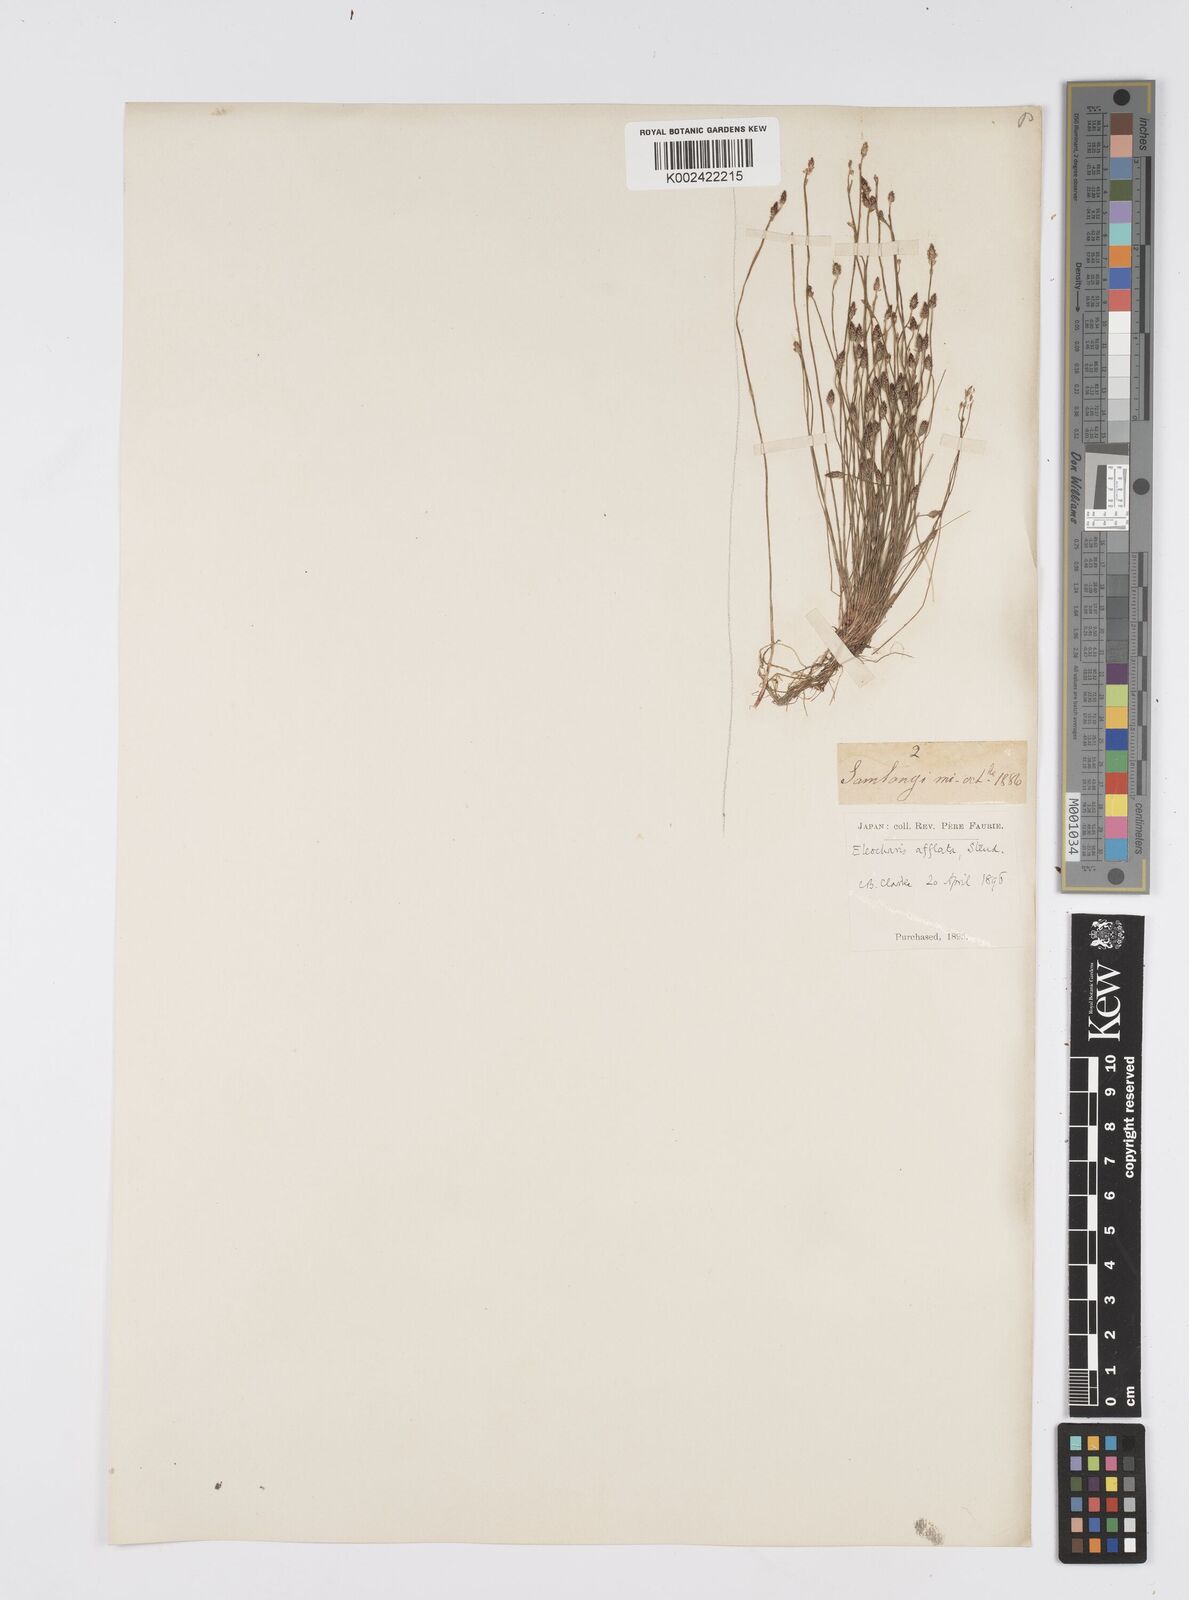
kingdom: Plantae
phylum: Tracheophyta
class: Liliopsida
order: Poales
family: Cyperaceae
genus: Eleocharis
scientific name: Eleocharis pellucida
